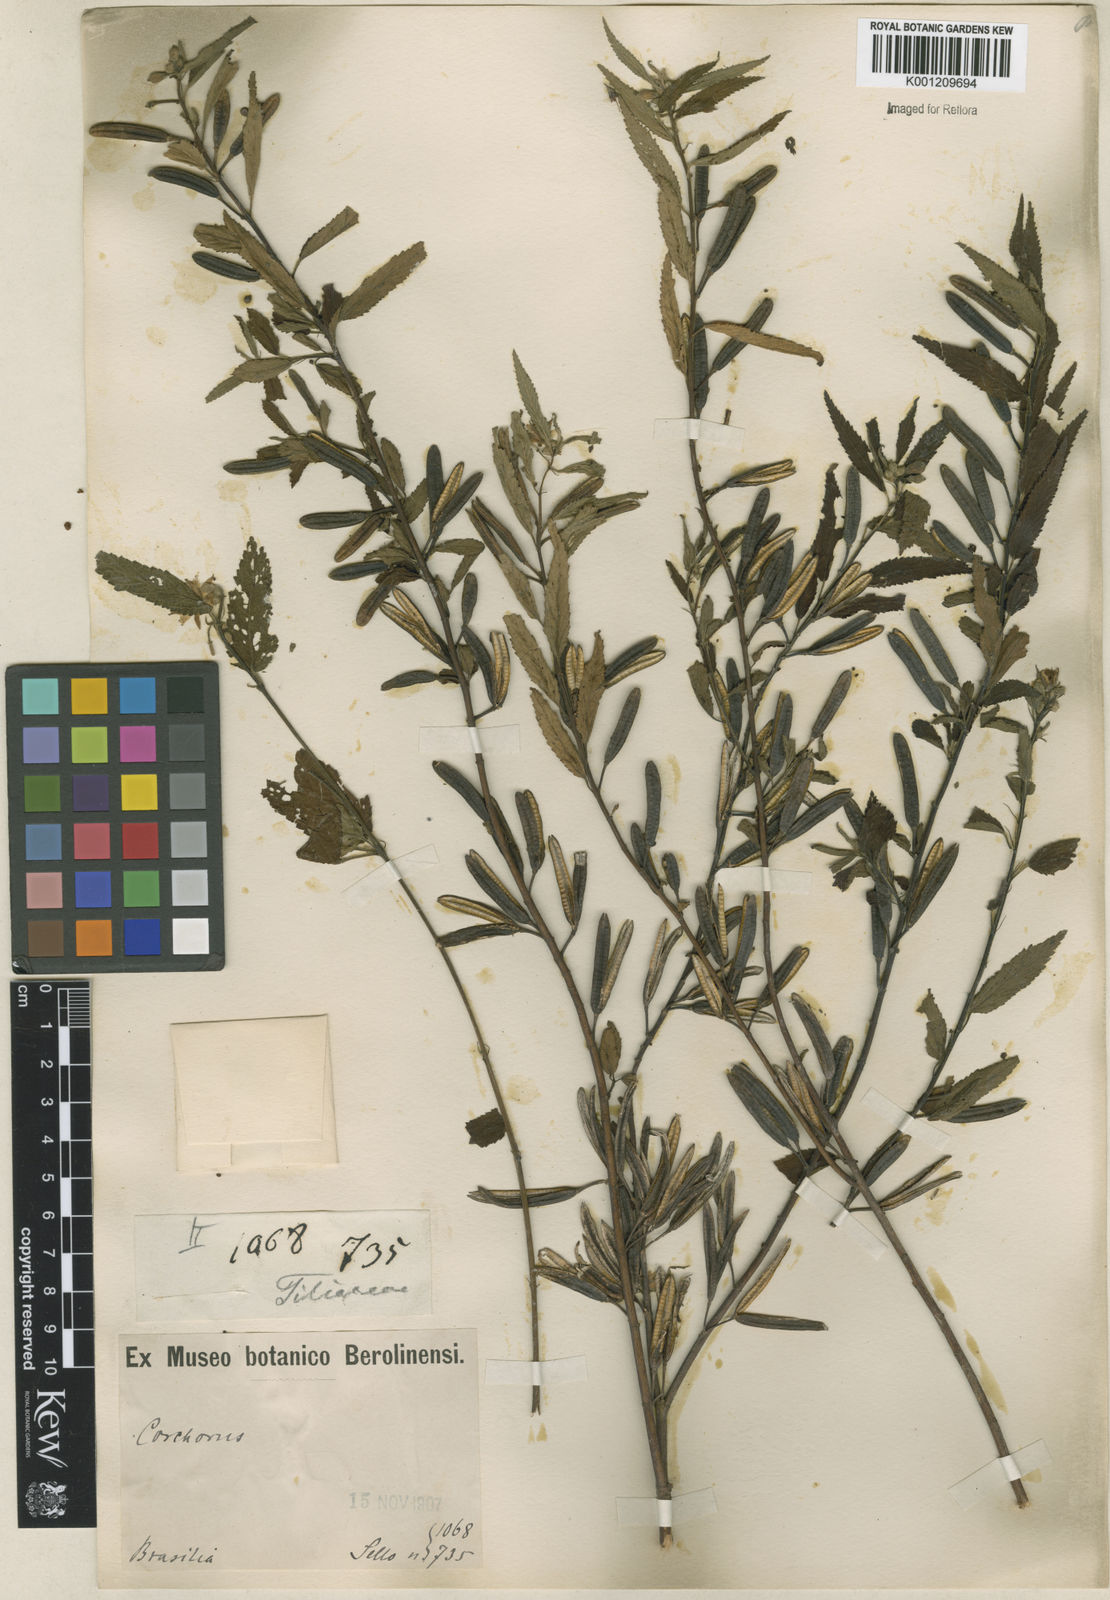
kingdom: Plantae
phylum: Tracheophyta
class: Magnoliopsida
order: Malvales
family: Malvaceae
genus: Corchorus
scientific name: Corchorus
